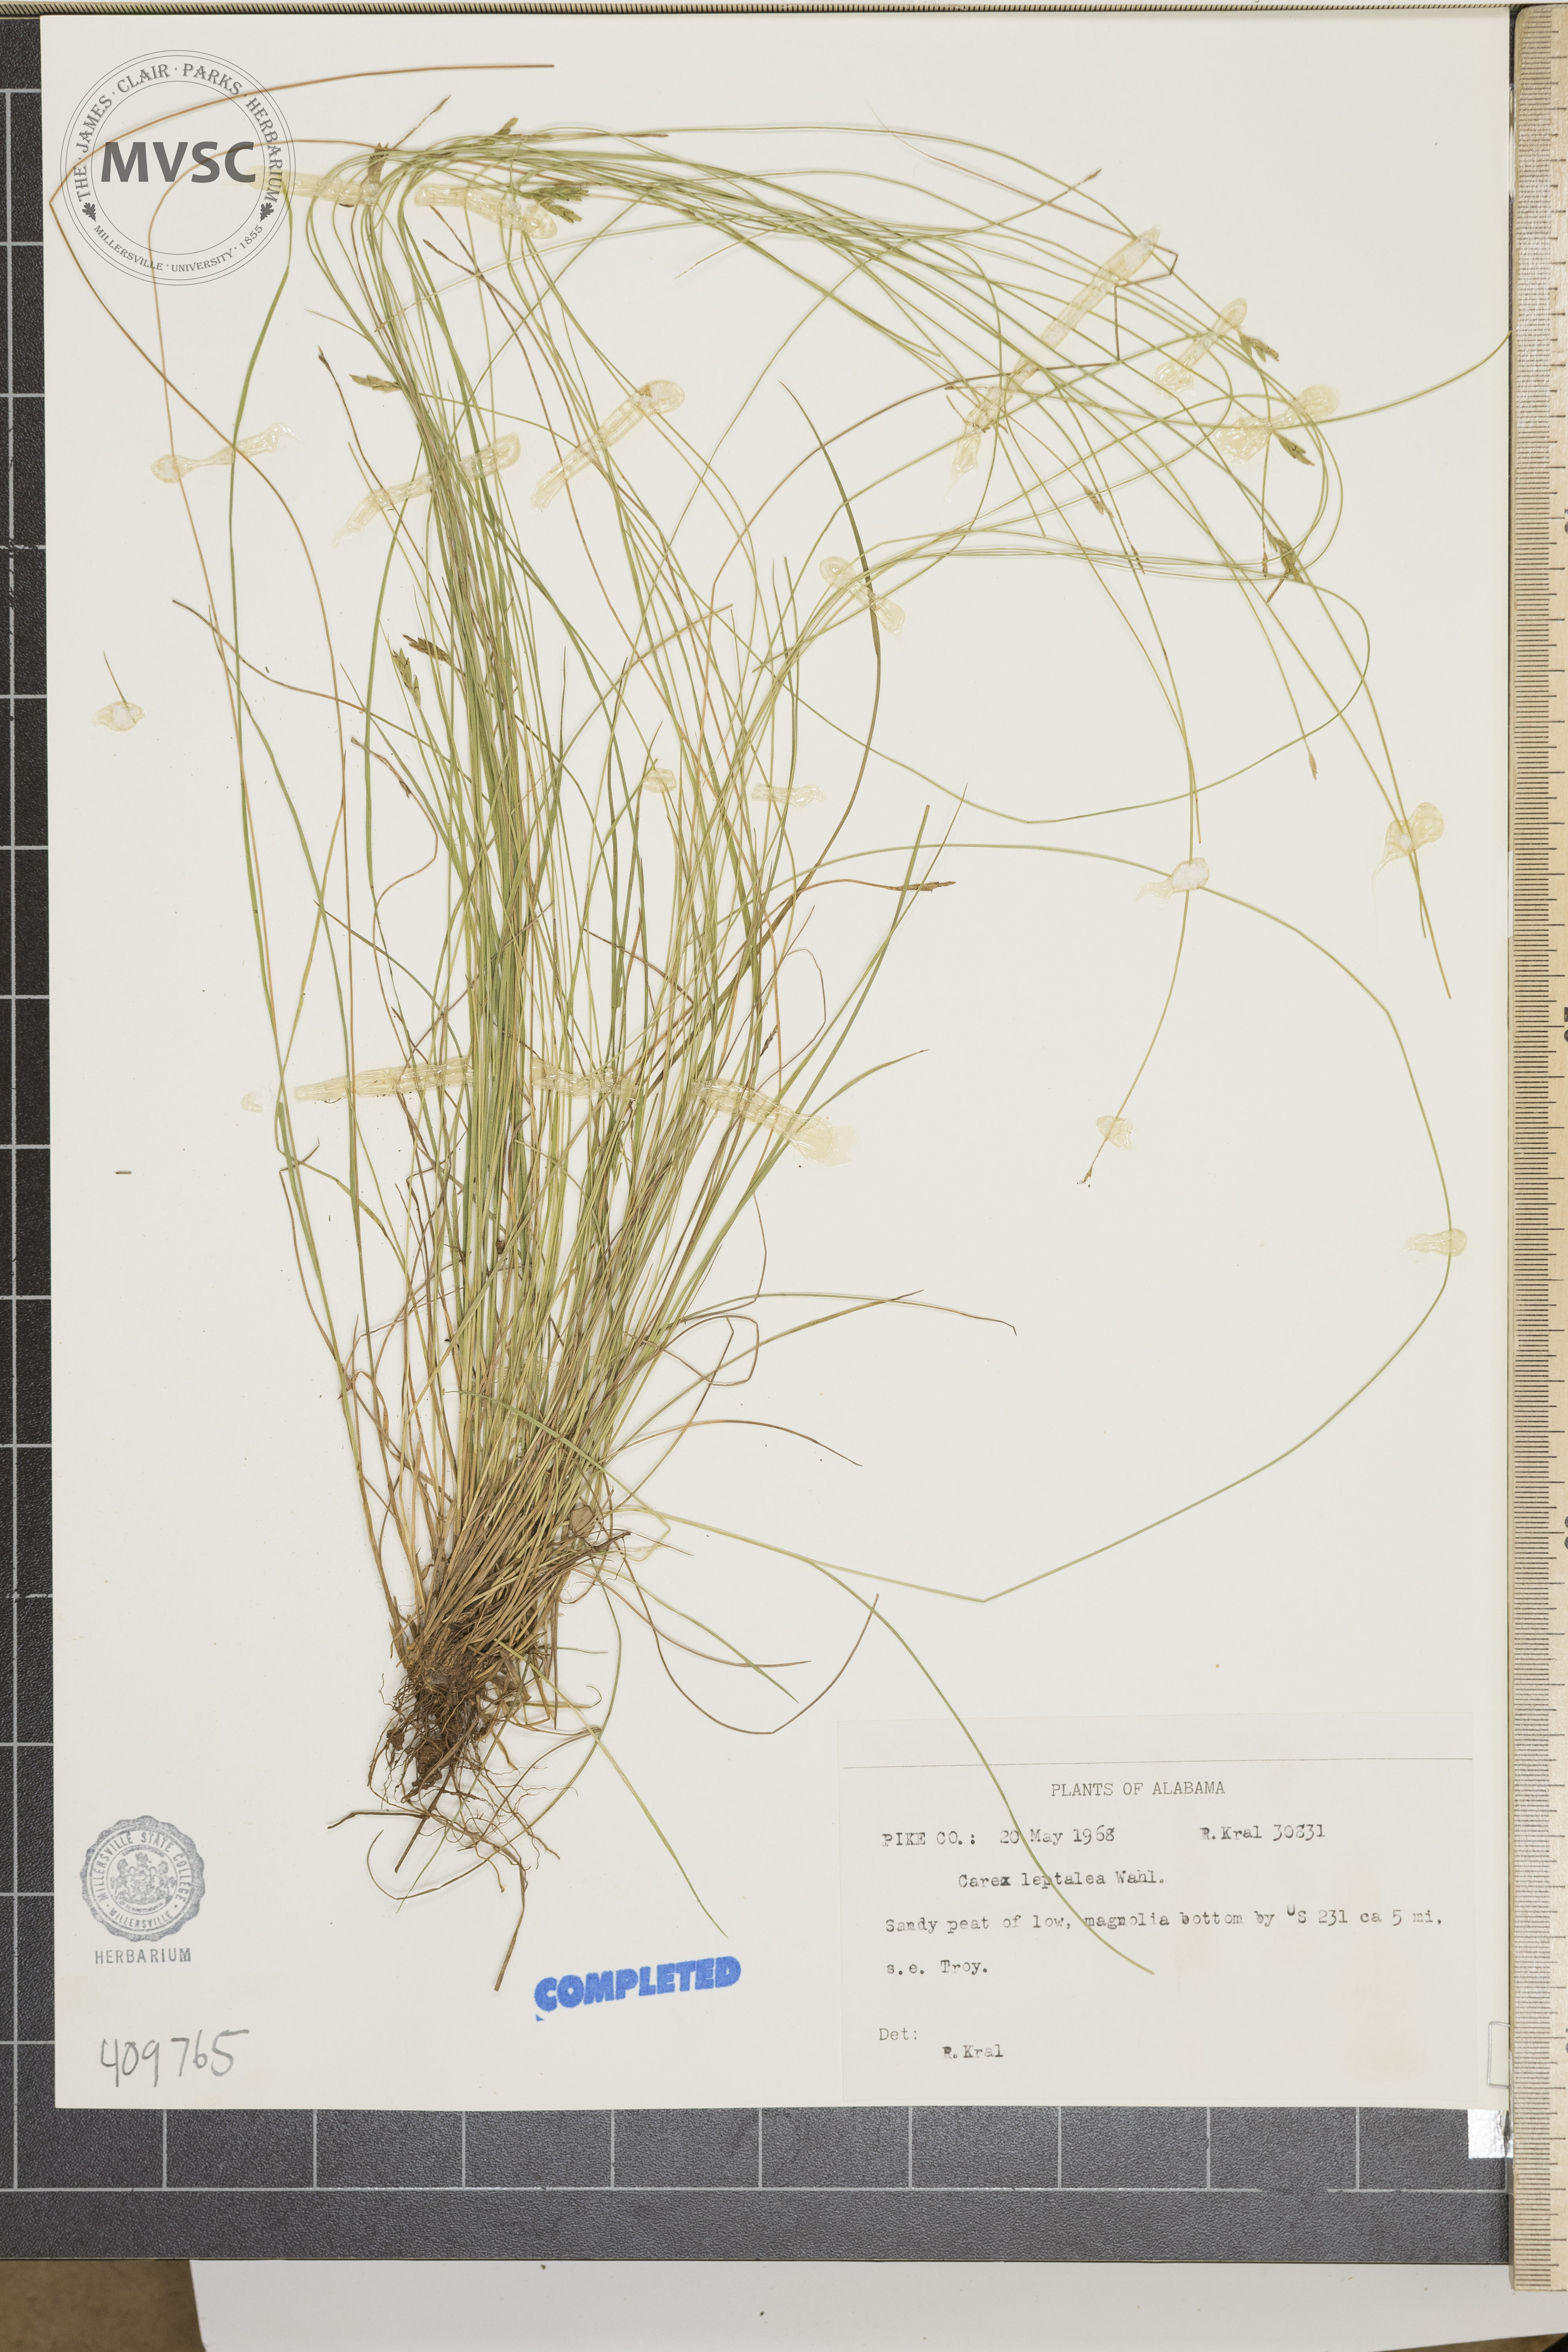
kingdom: Plantae
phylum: Tracheophyta
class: Liliopsida
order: Poales
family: Cyperaceae
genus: Carex
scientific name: Carex leptalea
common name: Bristly-stalked sedge
